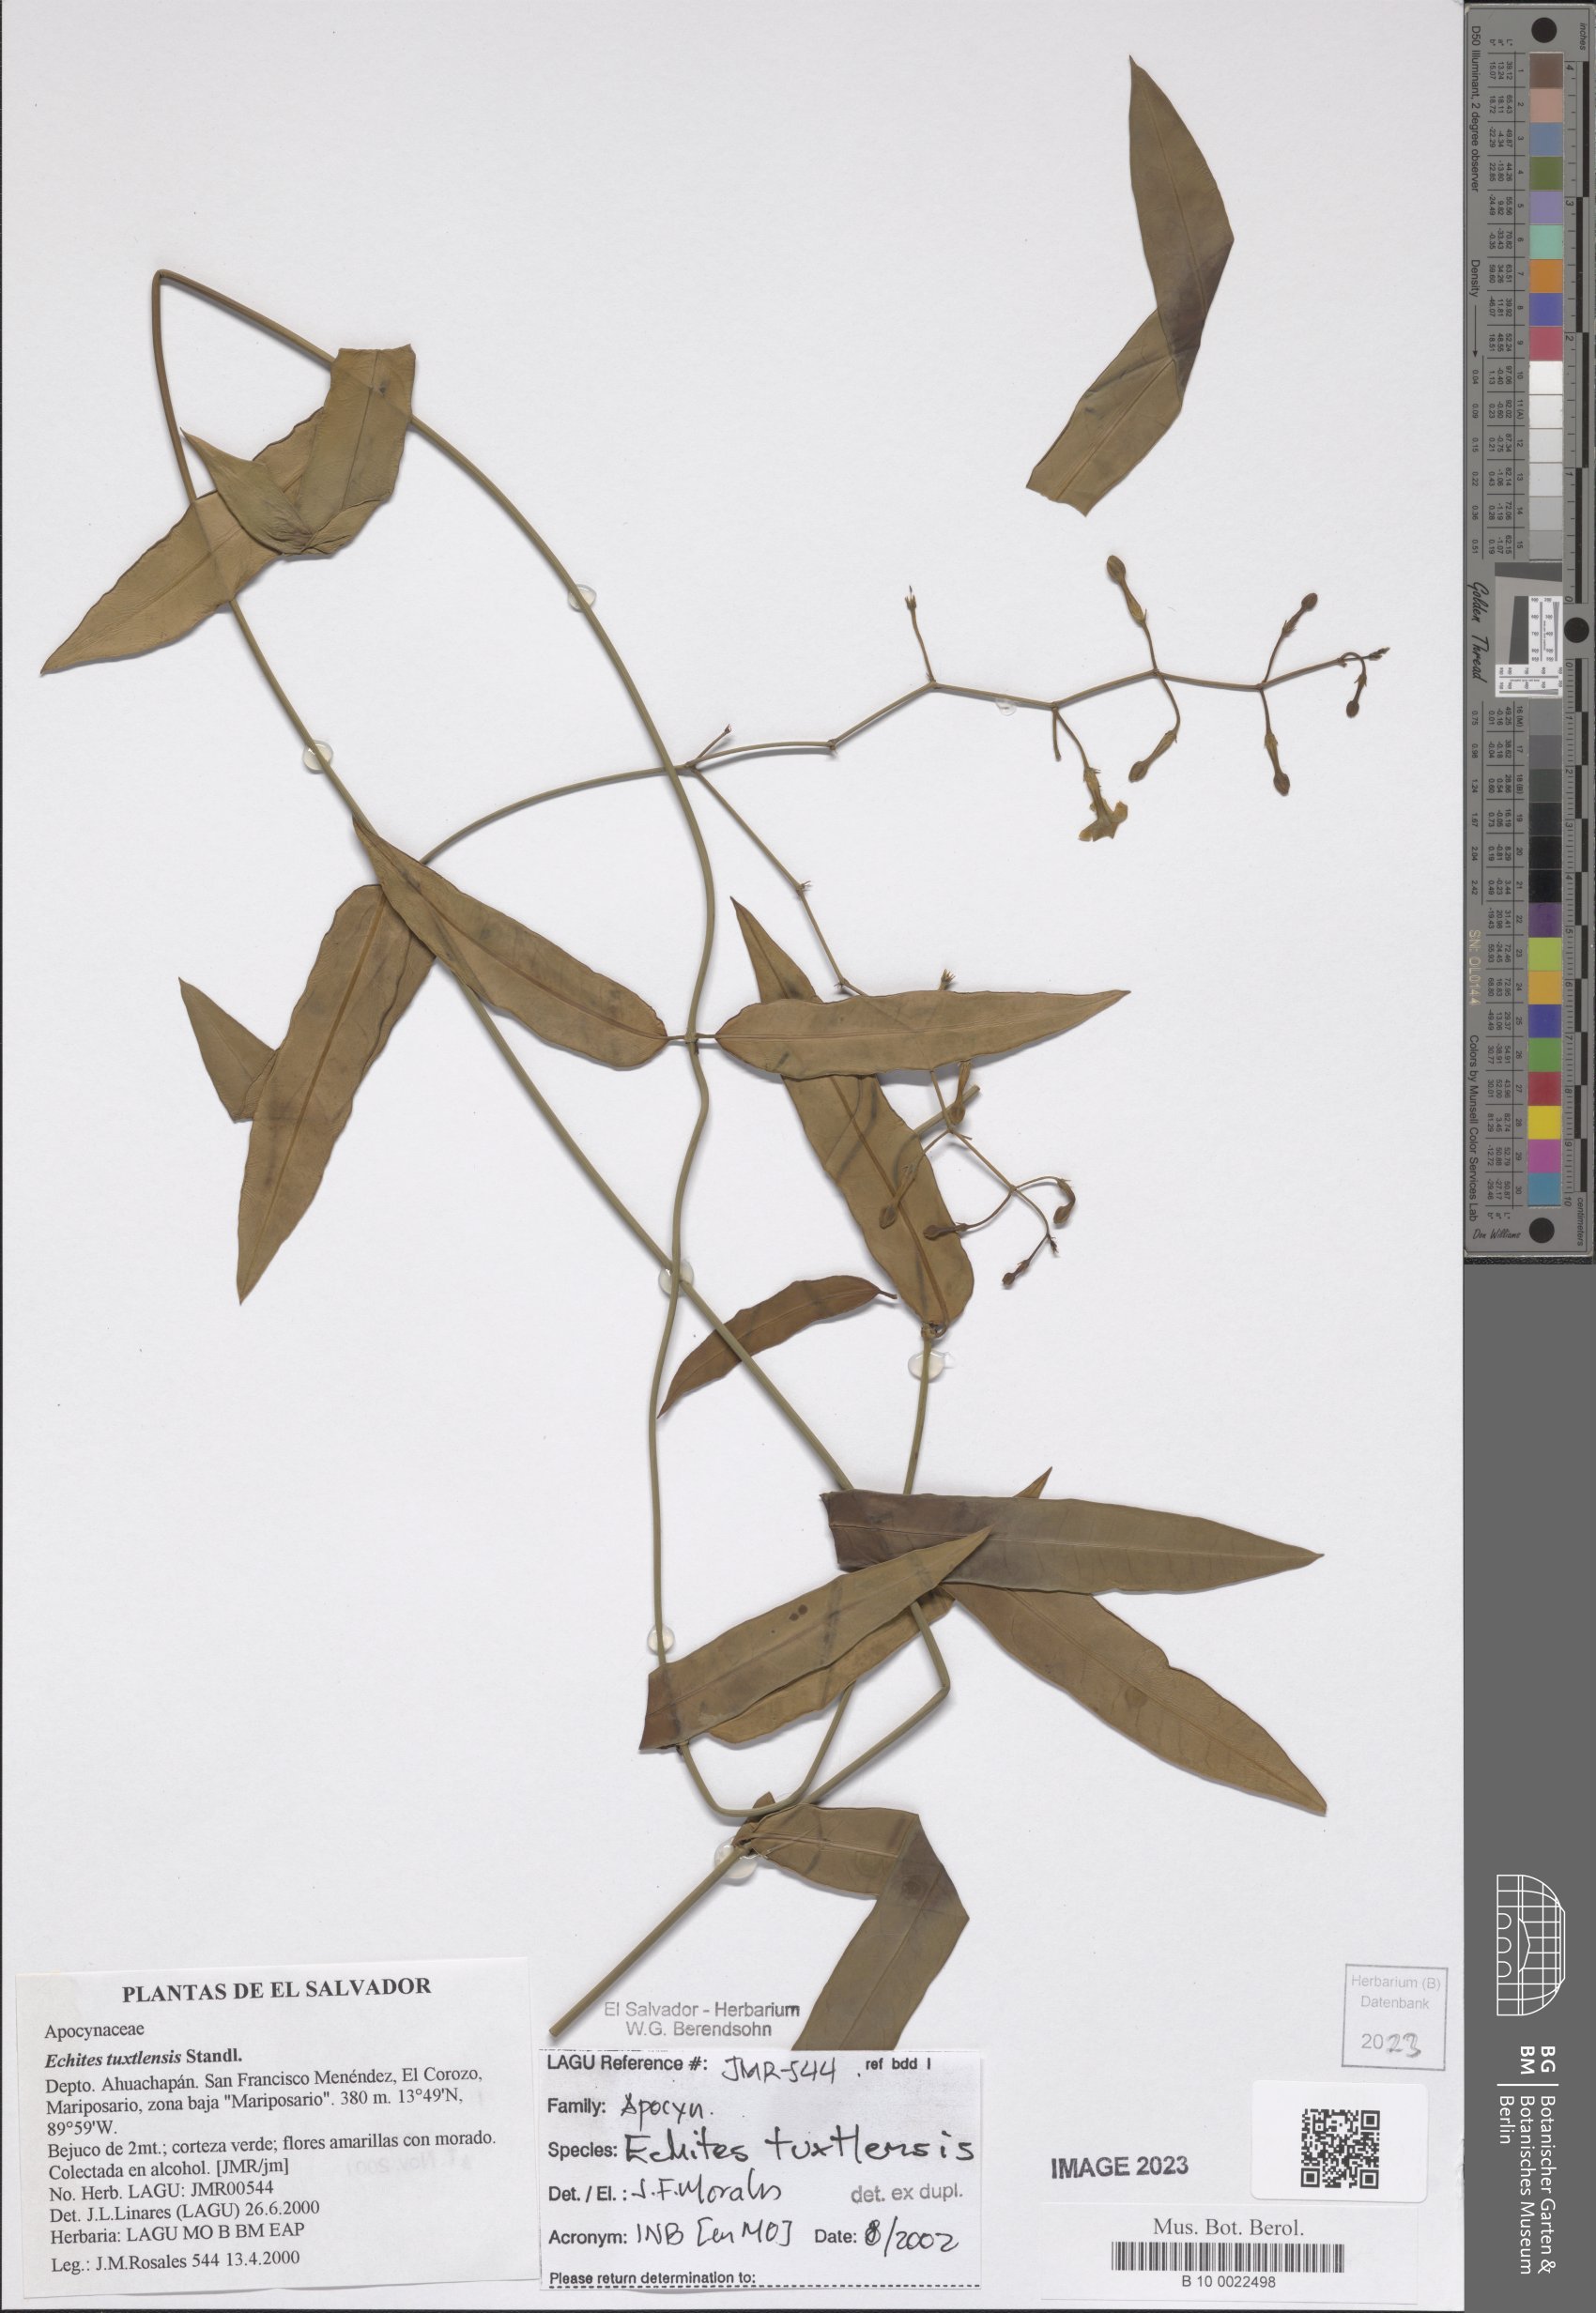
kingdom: Plantae
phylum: Tracheophyta
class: Magnoliopsida
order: Gentianales
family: Apocynaceae
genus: Echites
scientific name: Echites tuxtlensis
